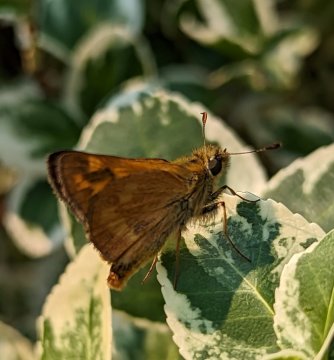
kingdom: Animalia
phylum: Arthropoda
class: Insecta
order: Lepidoptera
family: Hesperiidae
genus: Ochlodes
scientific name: Ochlodes sylvanoides
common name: Woodland Skipper
